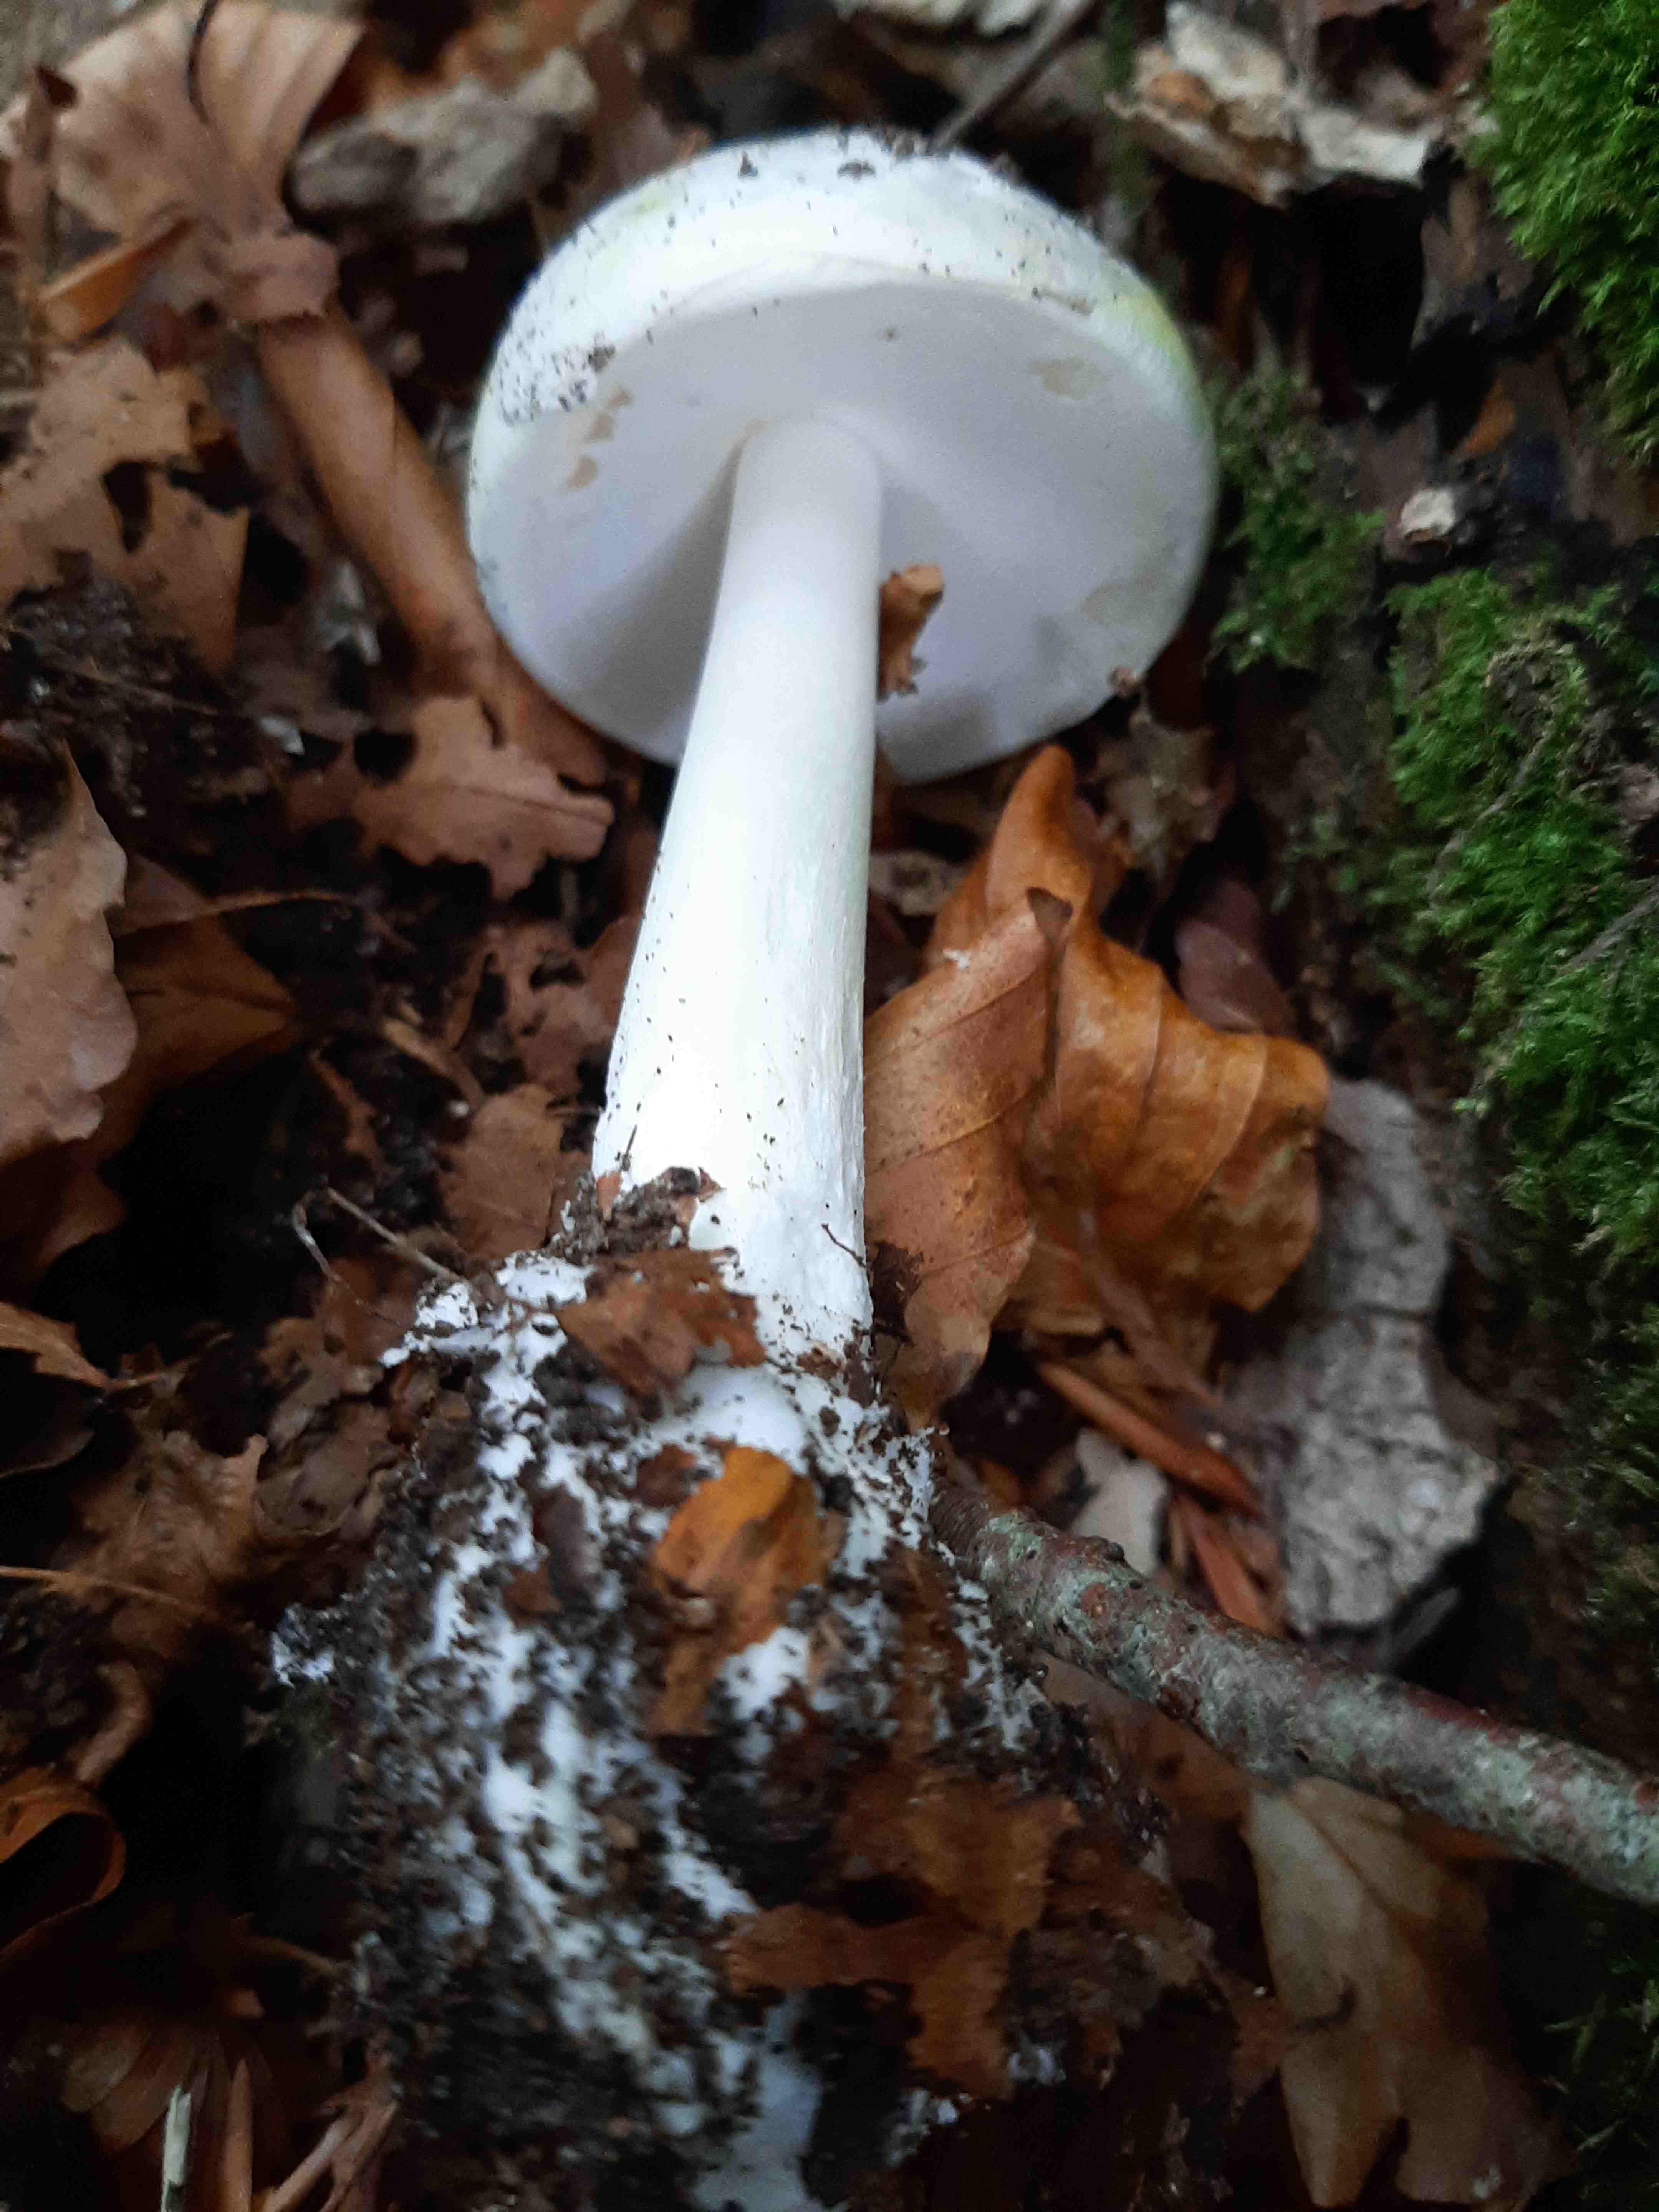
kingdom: Fungi
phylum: Basidiomycota
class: Agaricomycetes
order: Agaricales
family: Amanitaceae
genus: Amanita
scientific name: Amanita phalloides
